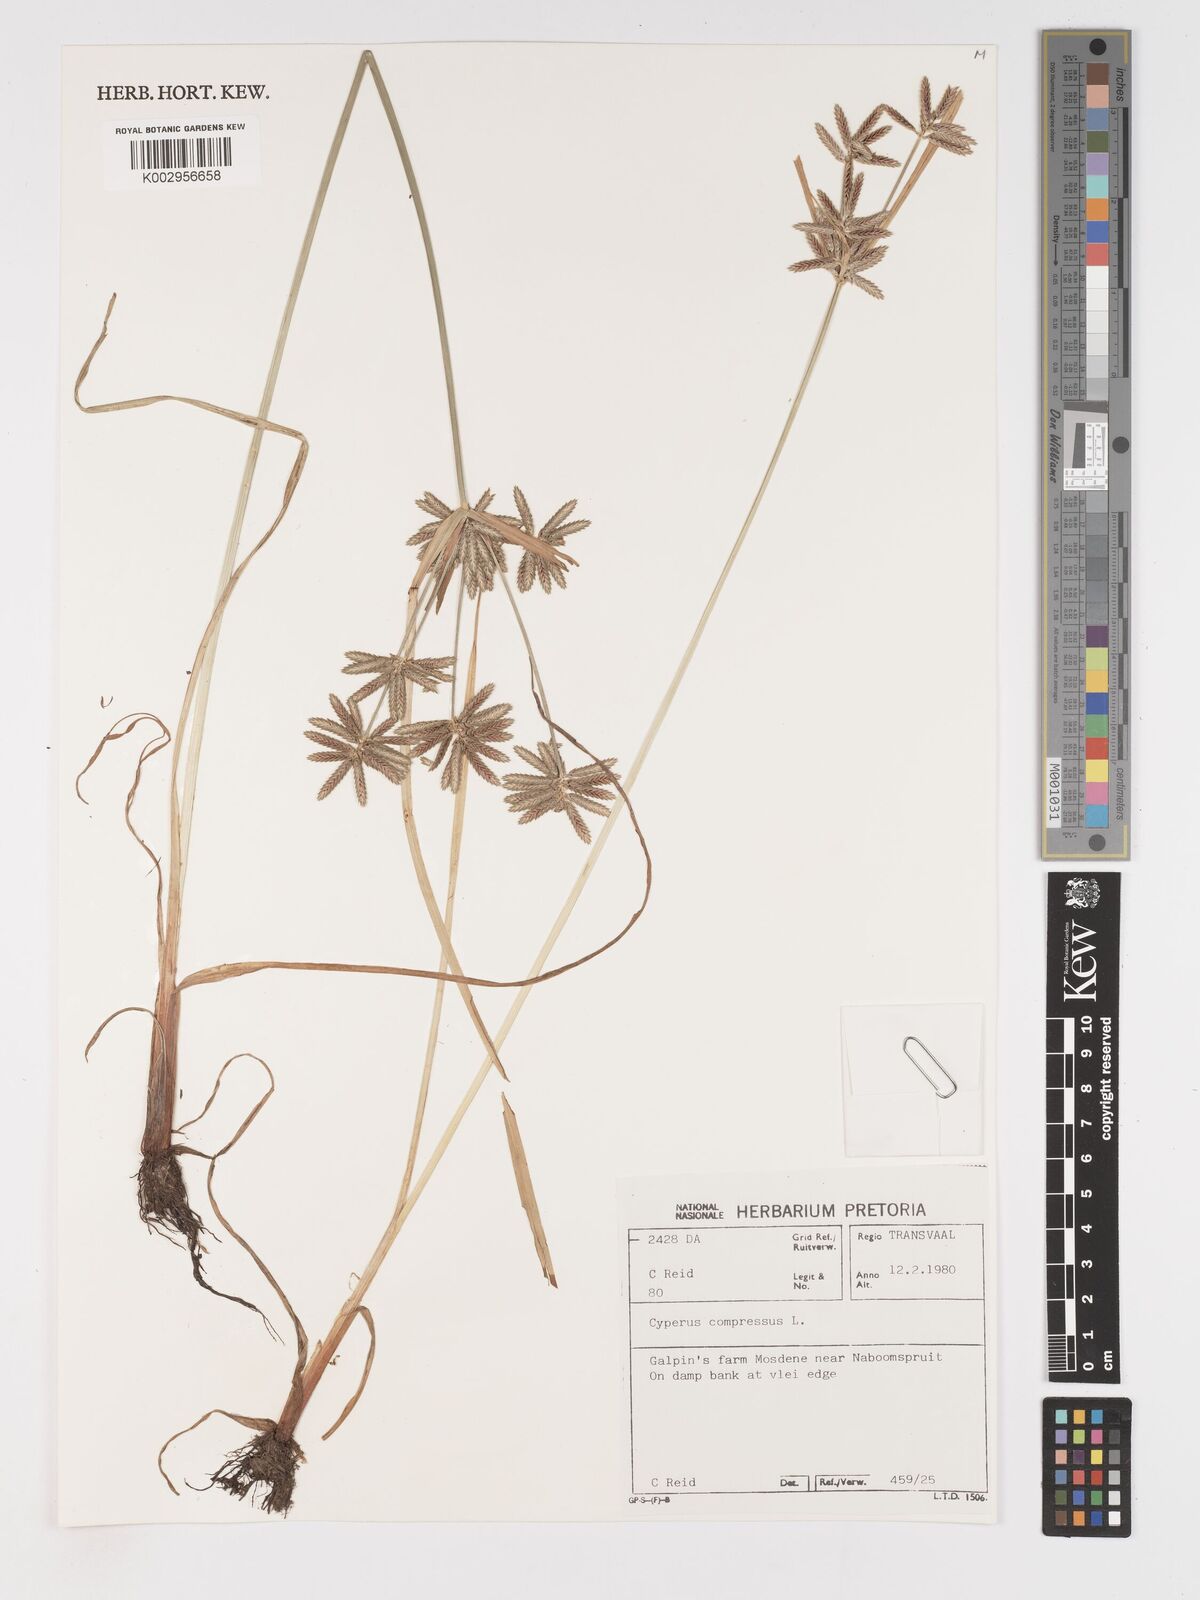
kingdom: Plantae
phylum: Tracheophyta
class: Liliopsida
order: Poales
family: Cyperaceae
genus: Cyperus
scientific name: Cyperus compressus
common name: Poorland flatsedge
